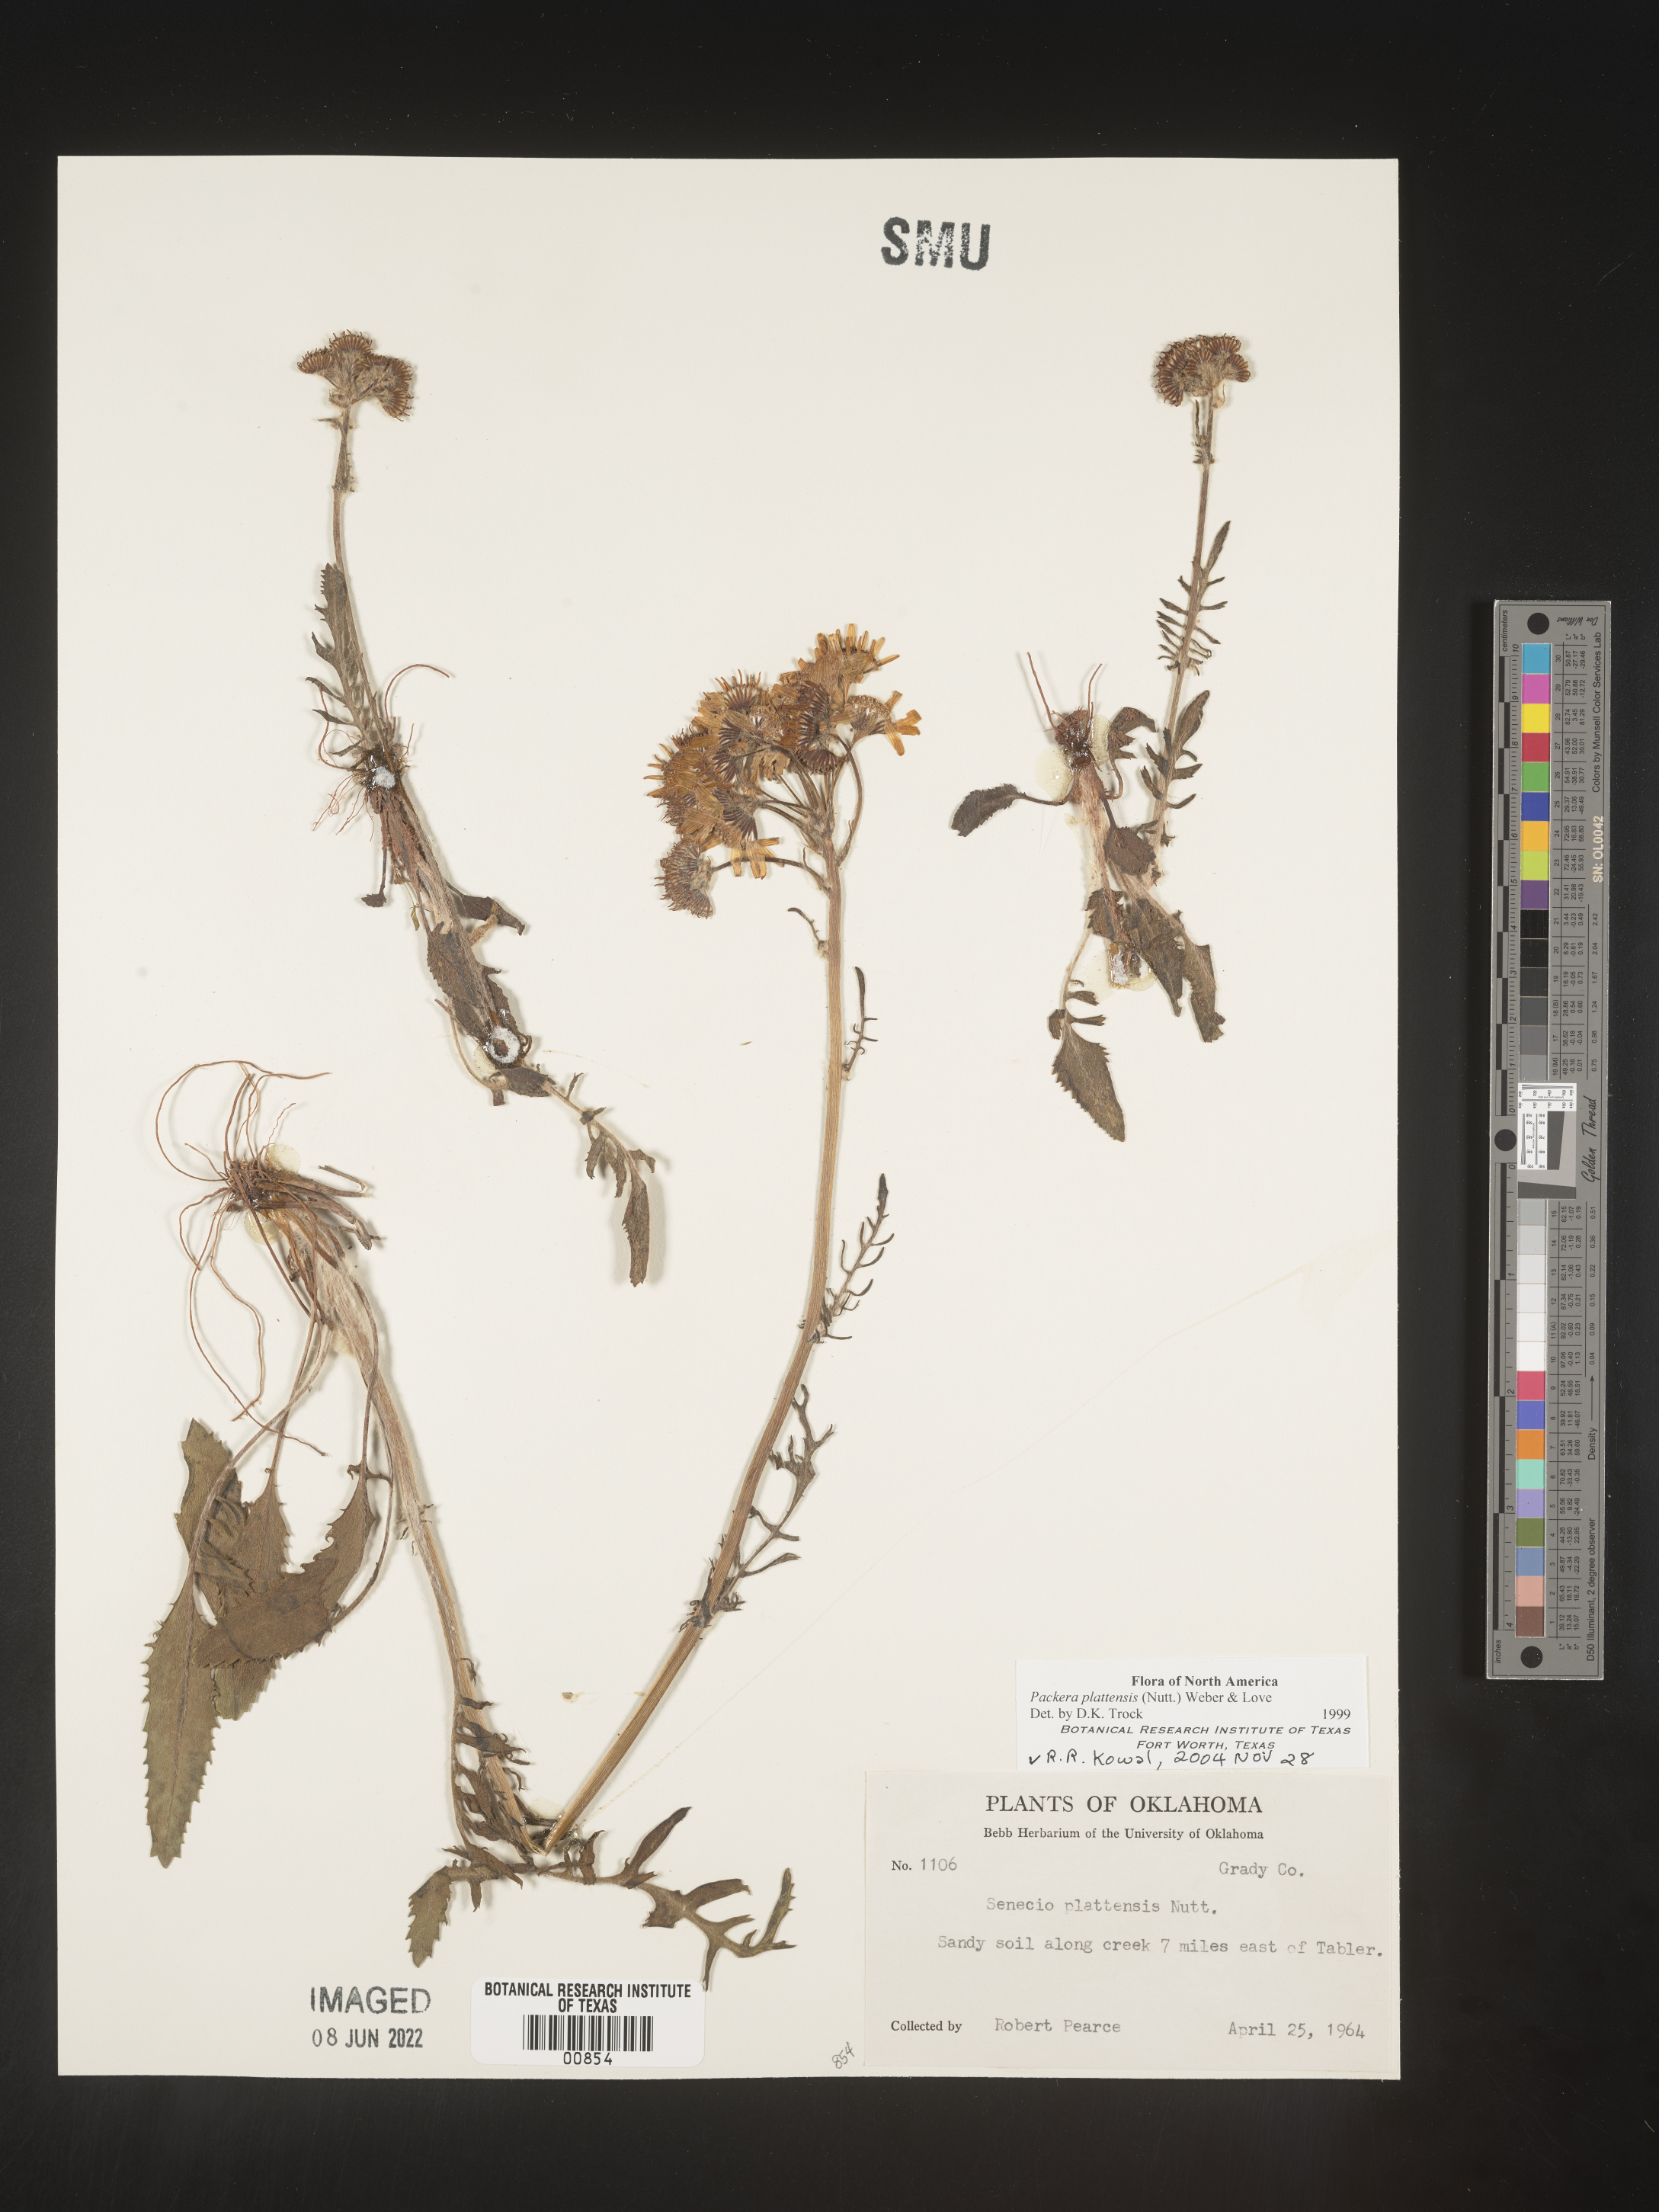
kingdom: Plantae
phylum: Tracheophyta
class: Magnoliopsida
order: Asterales
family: Asteraceae
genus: Packera
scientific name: Packera plattensis
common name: Prairie groundsel
